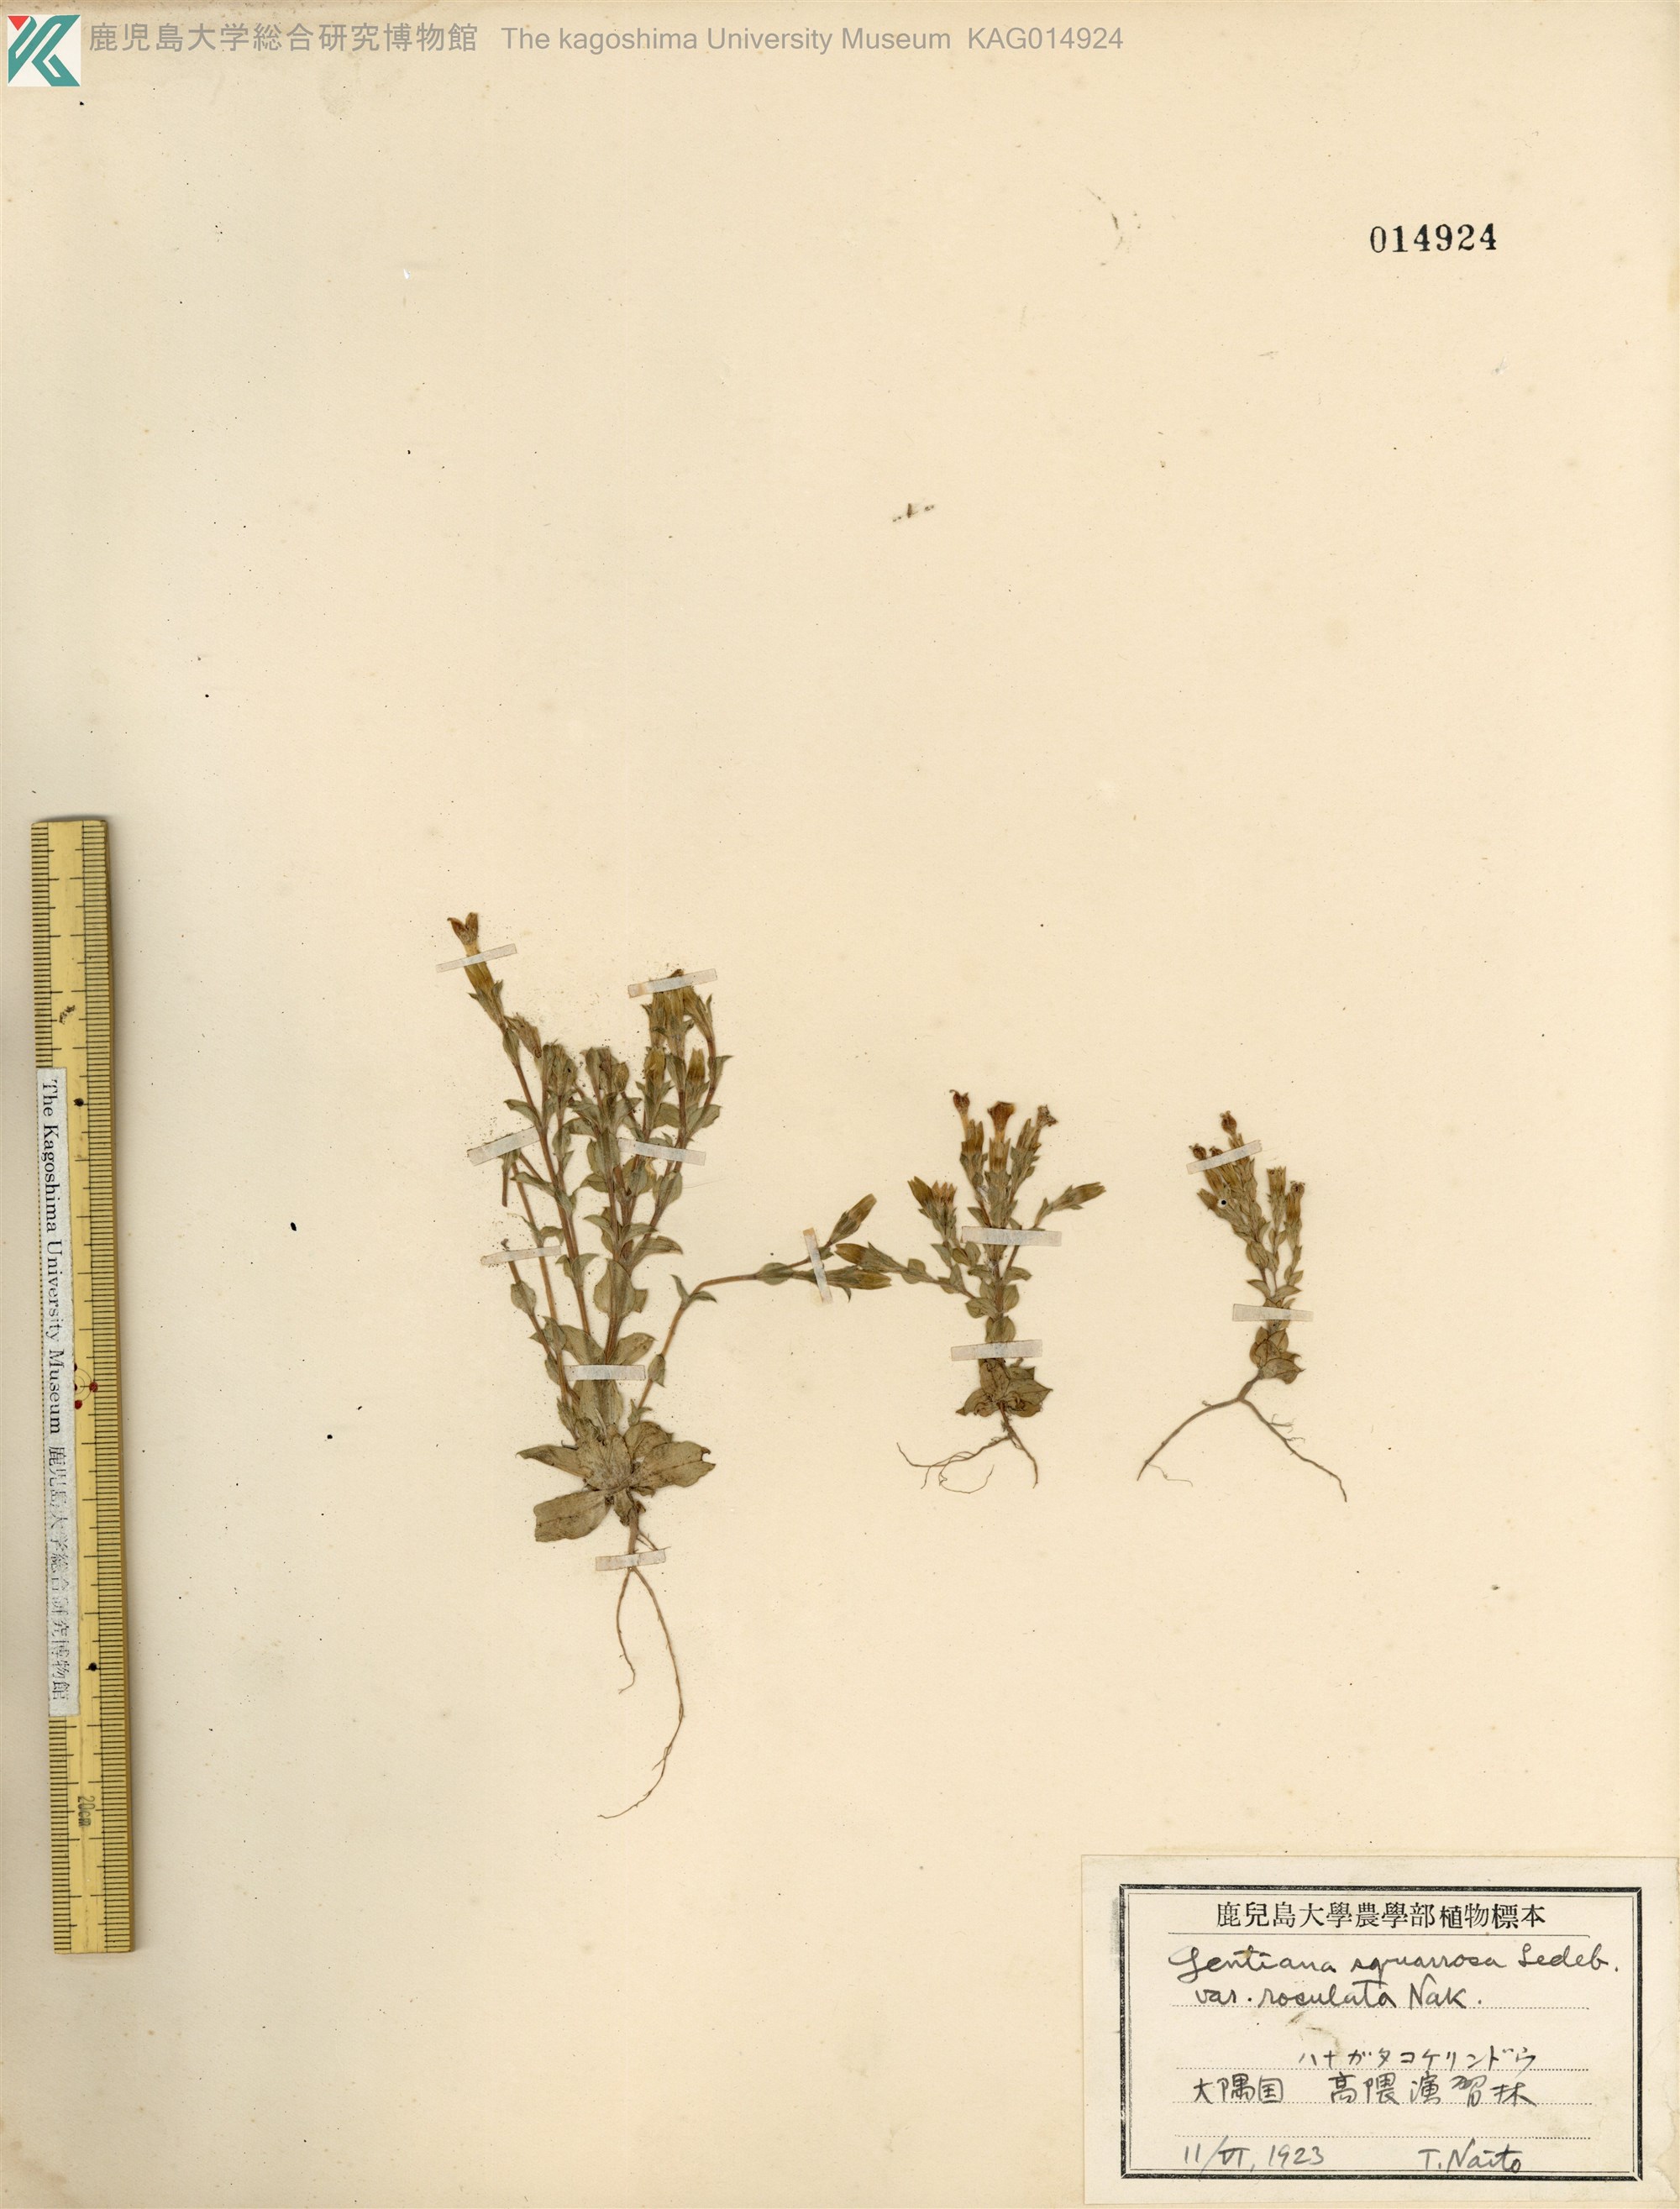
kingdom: Plantae
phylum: Tracheophyta
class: Magnoliopsida
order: Gentianales
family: Gentianaceae
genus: Gentiana
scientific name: Gentiana squarrosa
